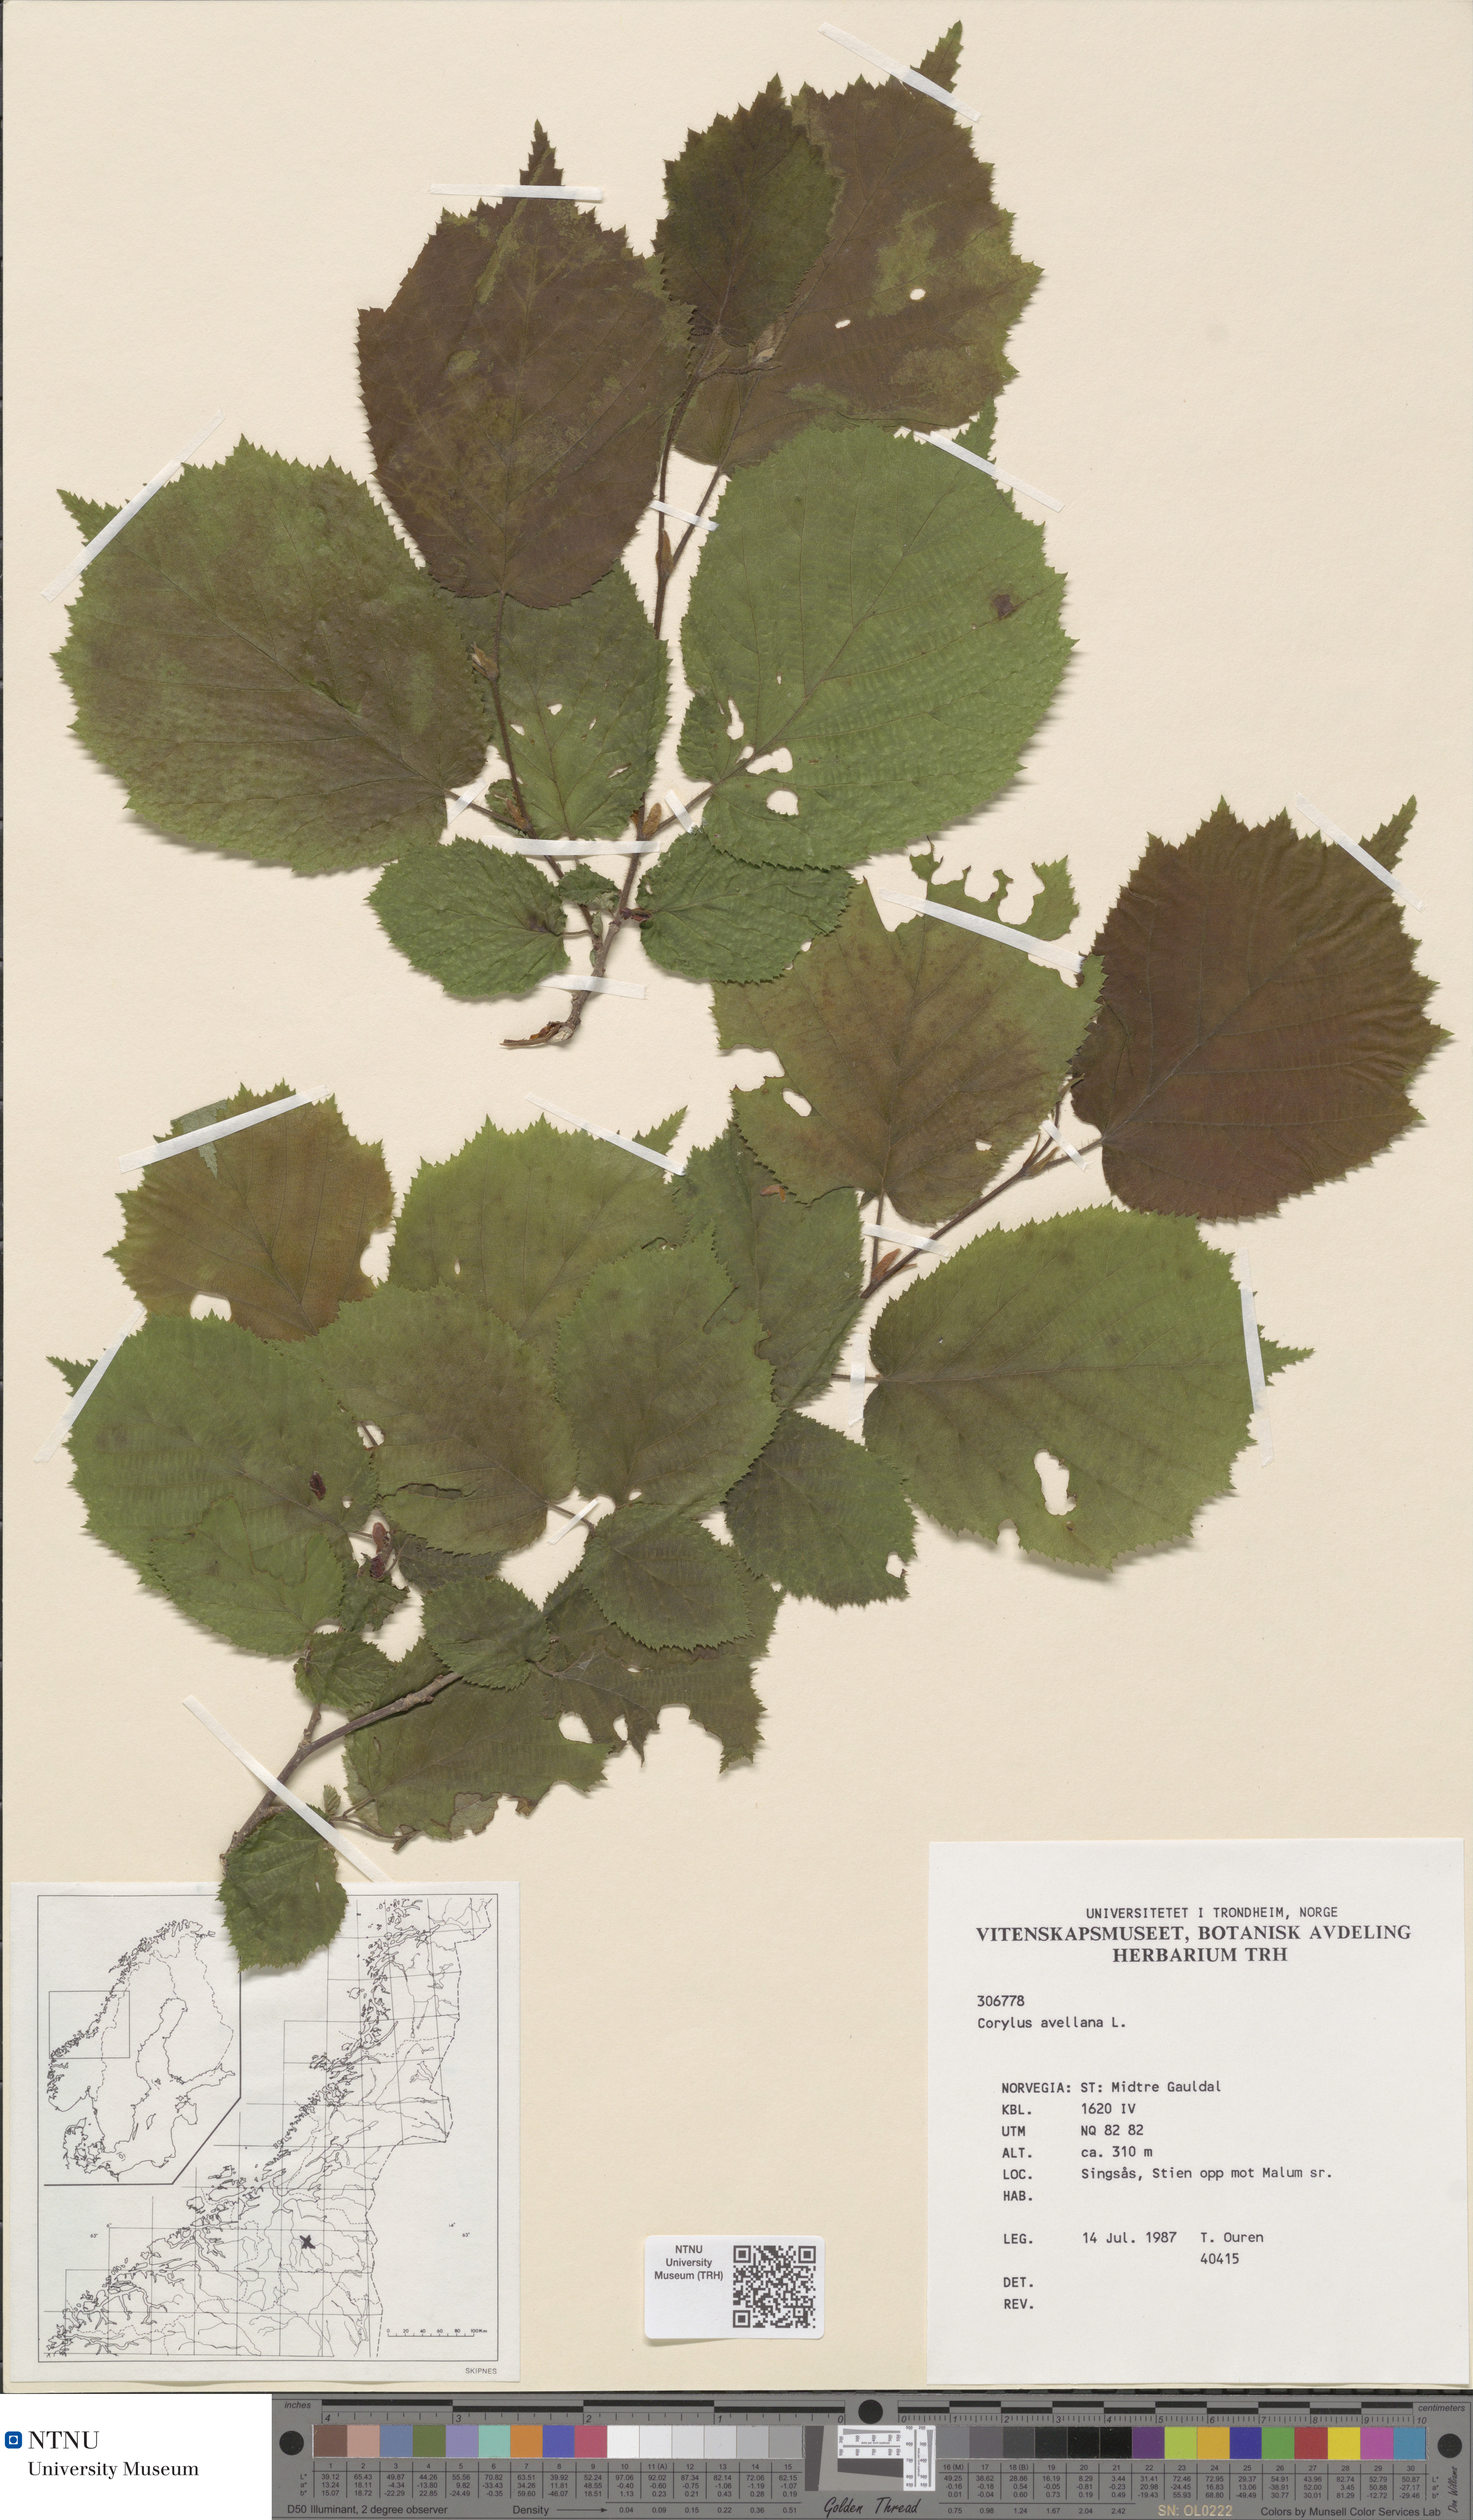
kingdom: Plantae
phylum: Tracheophyta
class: Magnoliopsida
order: Fagales
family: Betulaceae
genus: Corylus
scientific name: Corylus avellana
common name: European hazel
